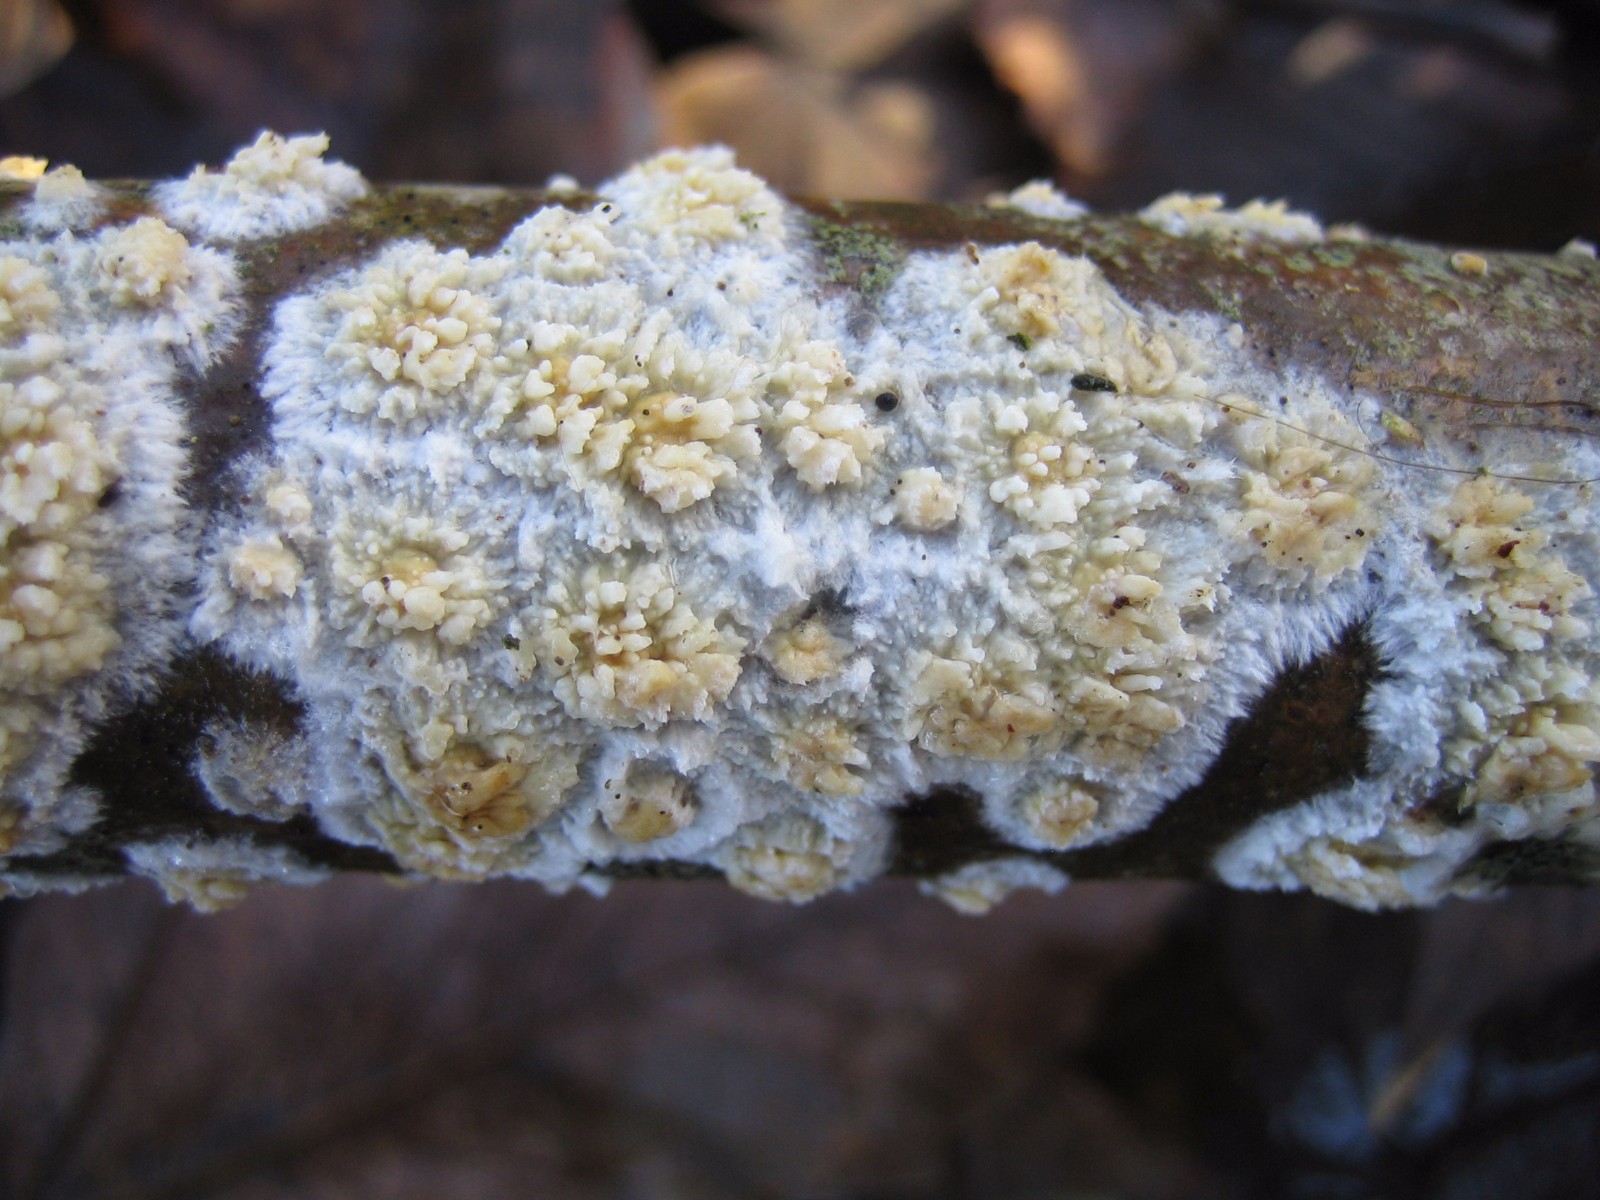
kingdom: Fungi
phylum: Basidiomycota
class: Agaricomycetes
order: Hymenochaetales
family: Schizoporaceae
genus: Xylodon
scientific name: Xylodon radula
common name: grovtandet kalkskind
